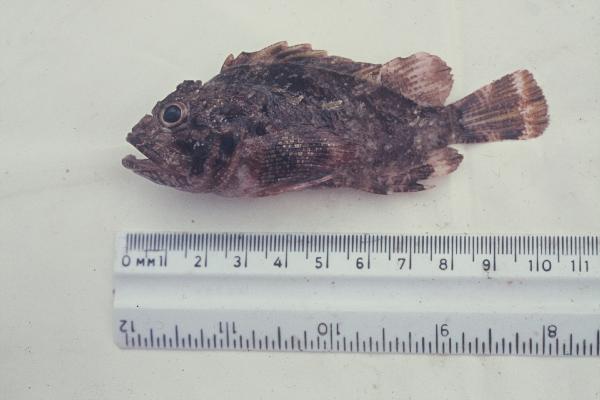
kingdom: Animalia
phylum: Chordata
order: Scorpaeniformes
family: Scorpaenidae
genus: Parascorpaena
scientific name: Parascorpaena bandanensis
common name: Banda scorpionfish
